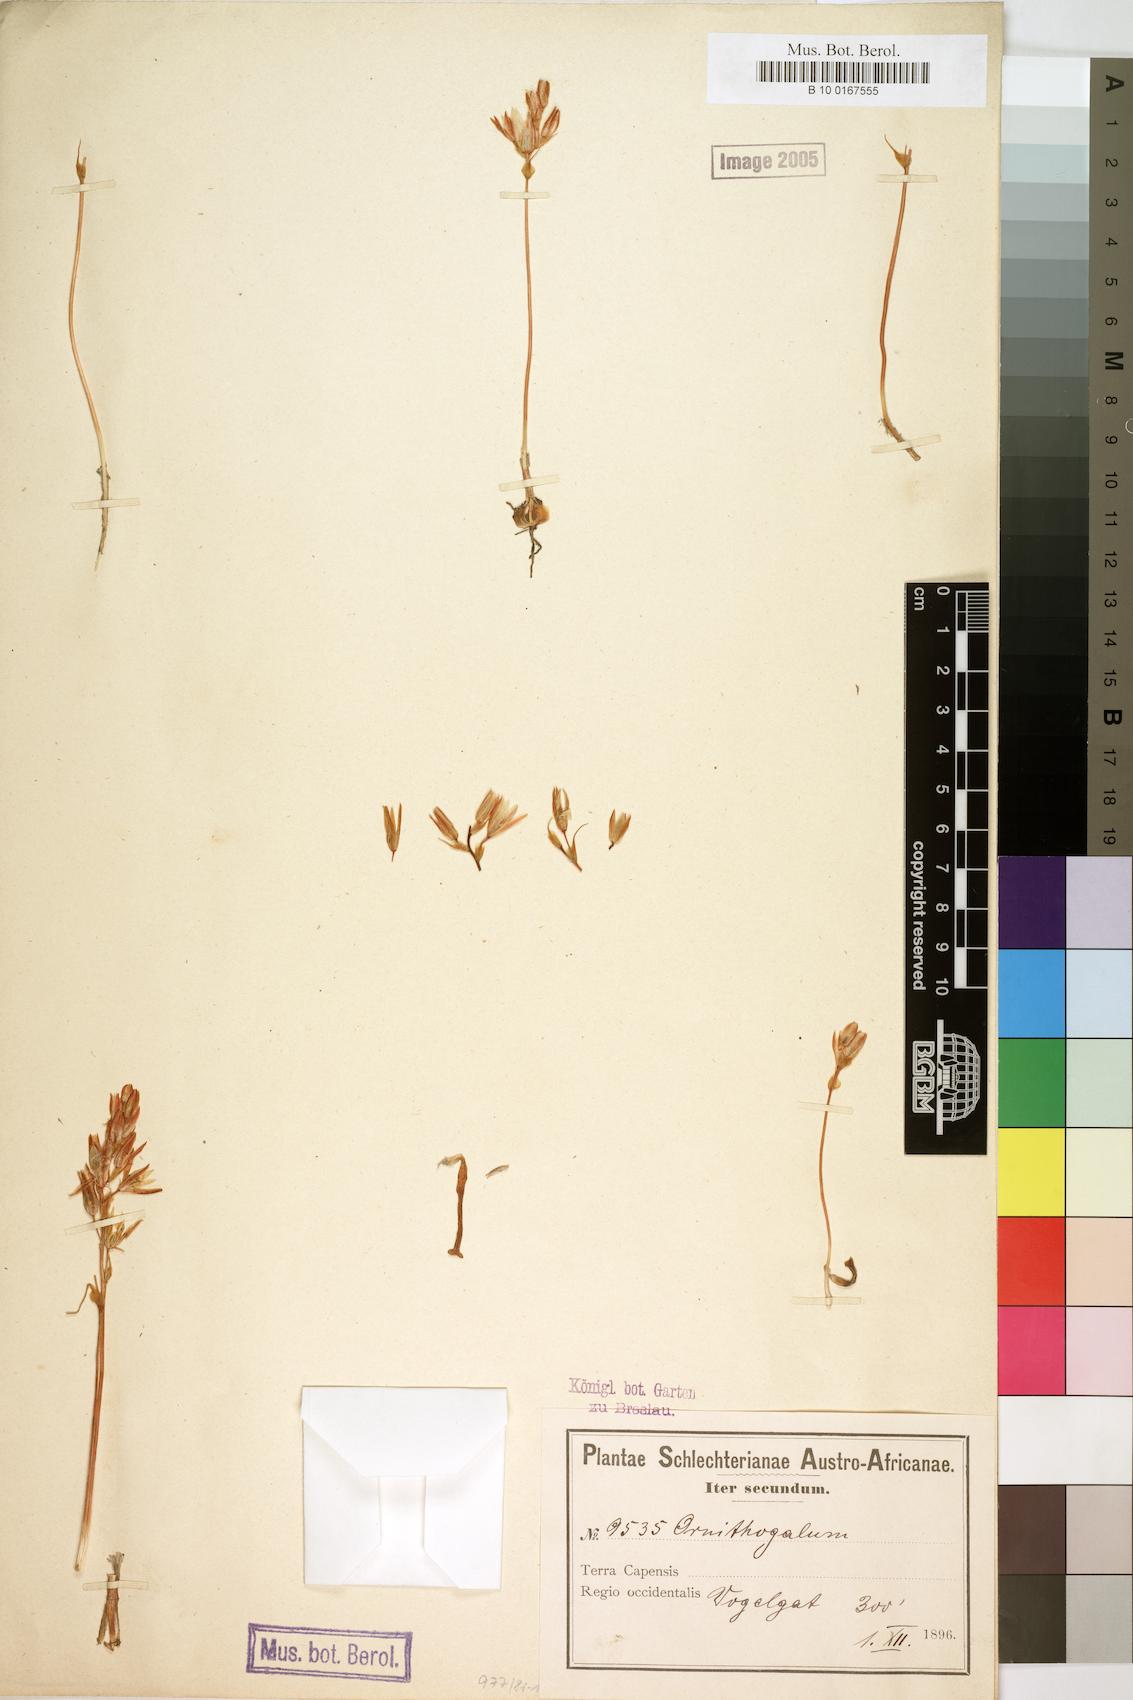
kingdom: Plantae
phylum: Tracheophyta
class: Liliopsida
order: Liliales
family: Liliaceae
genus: Ornithogalum
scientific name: Ornithogalum
